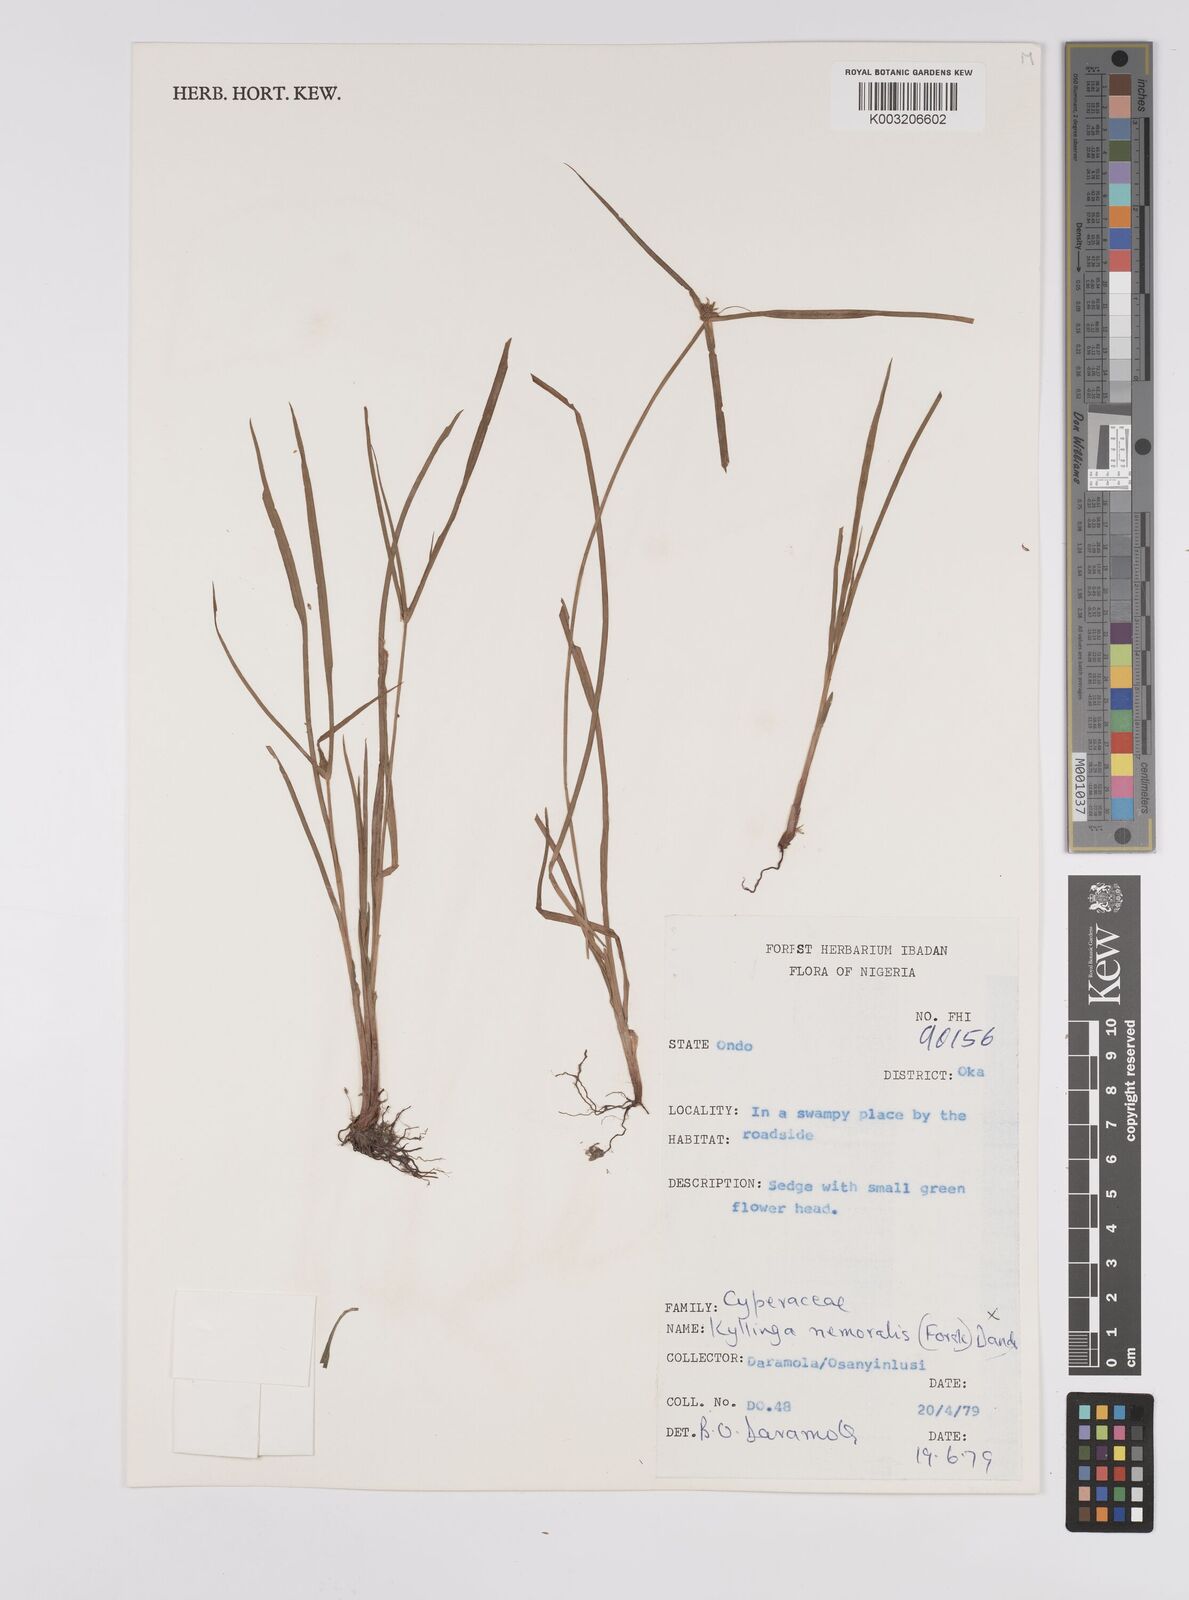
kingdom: Plantae
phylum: Tracheophyta
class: Liliopsida
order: Poales
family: Cyperaceae
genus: Cyperus
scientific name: Cyperus nemoralis
